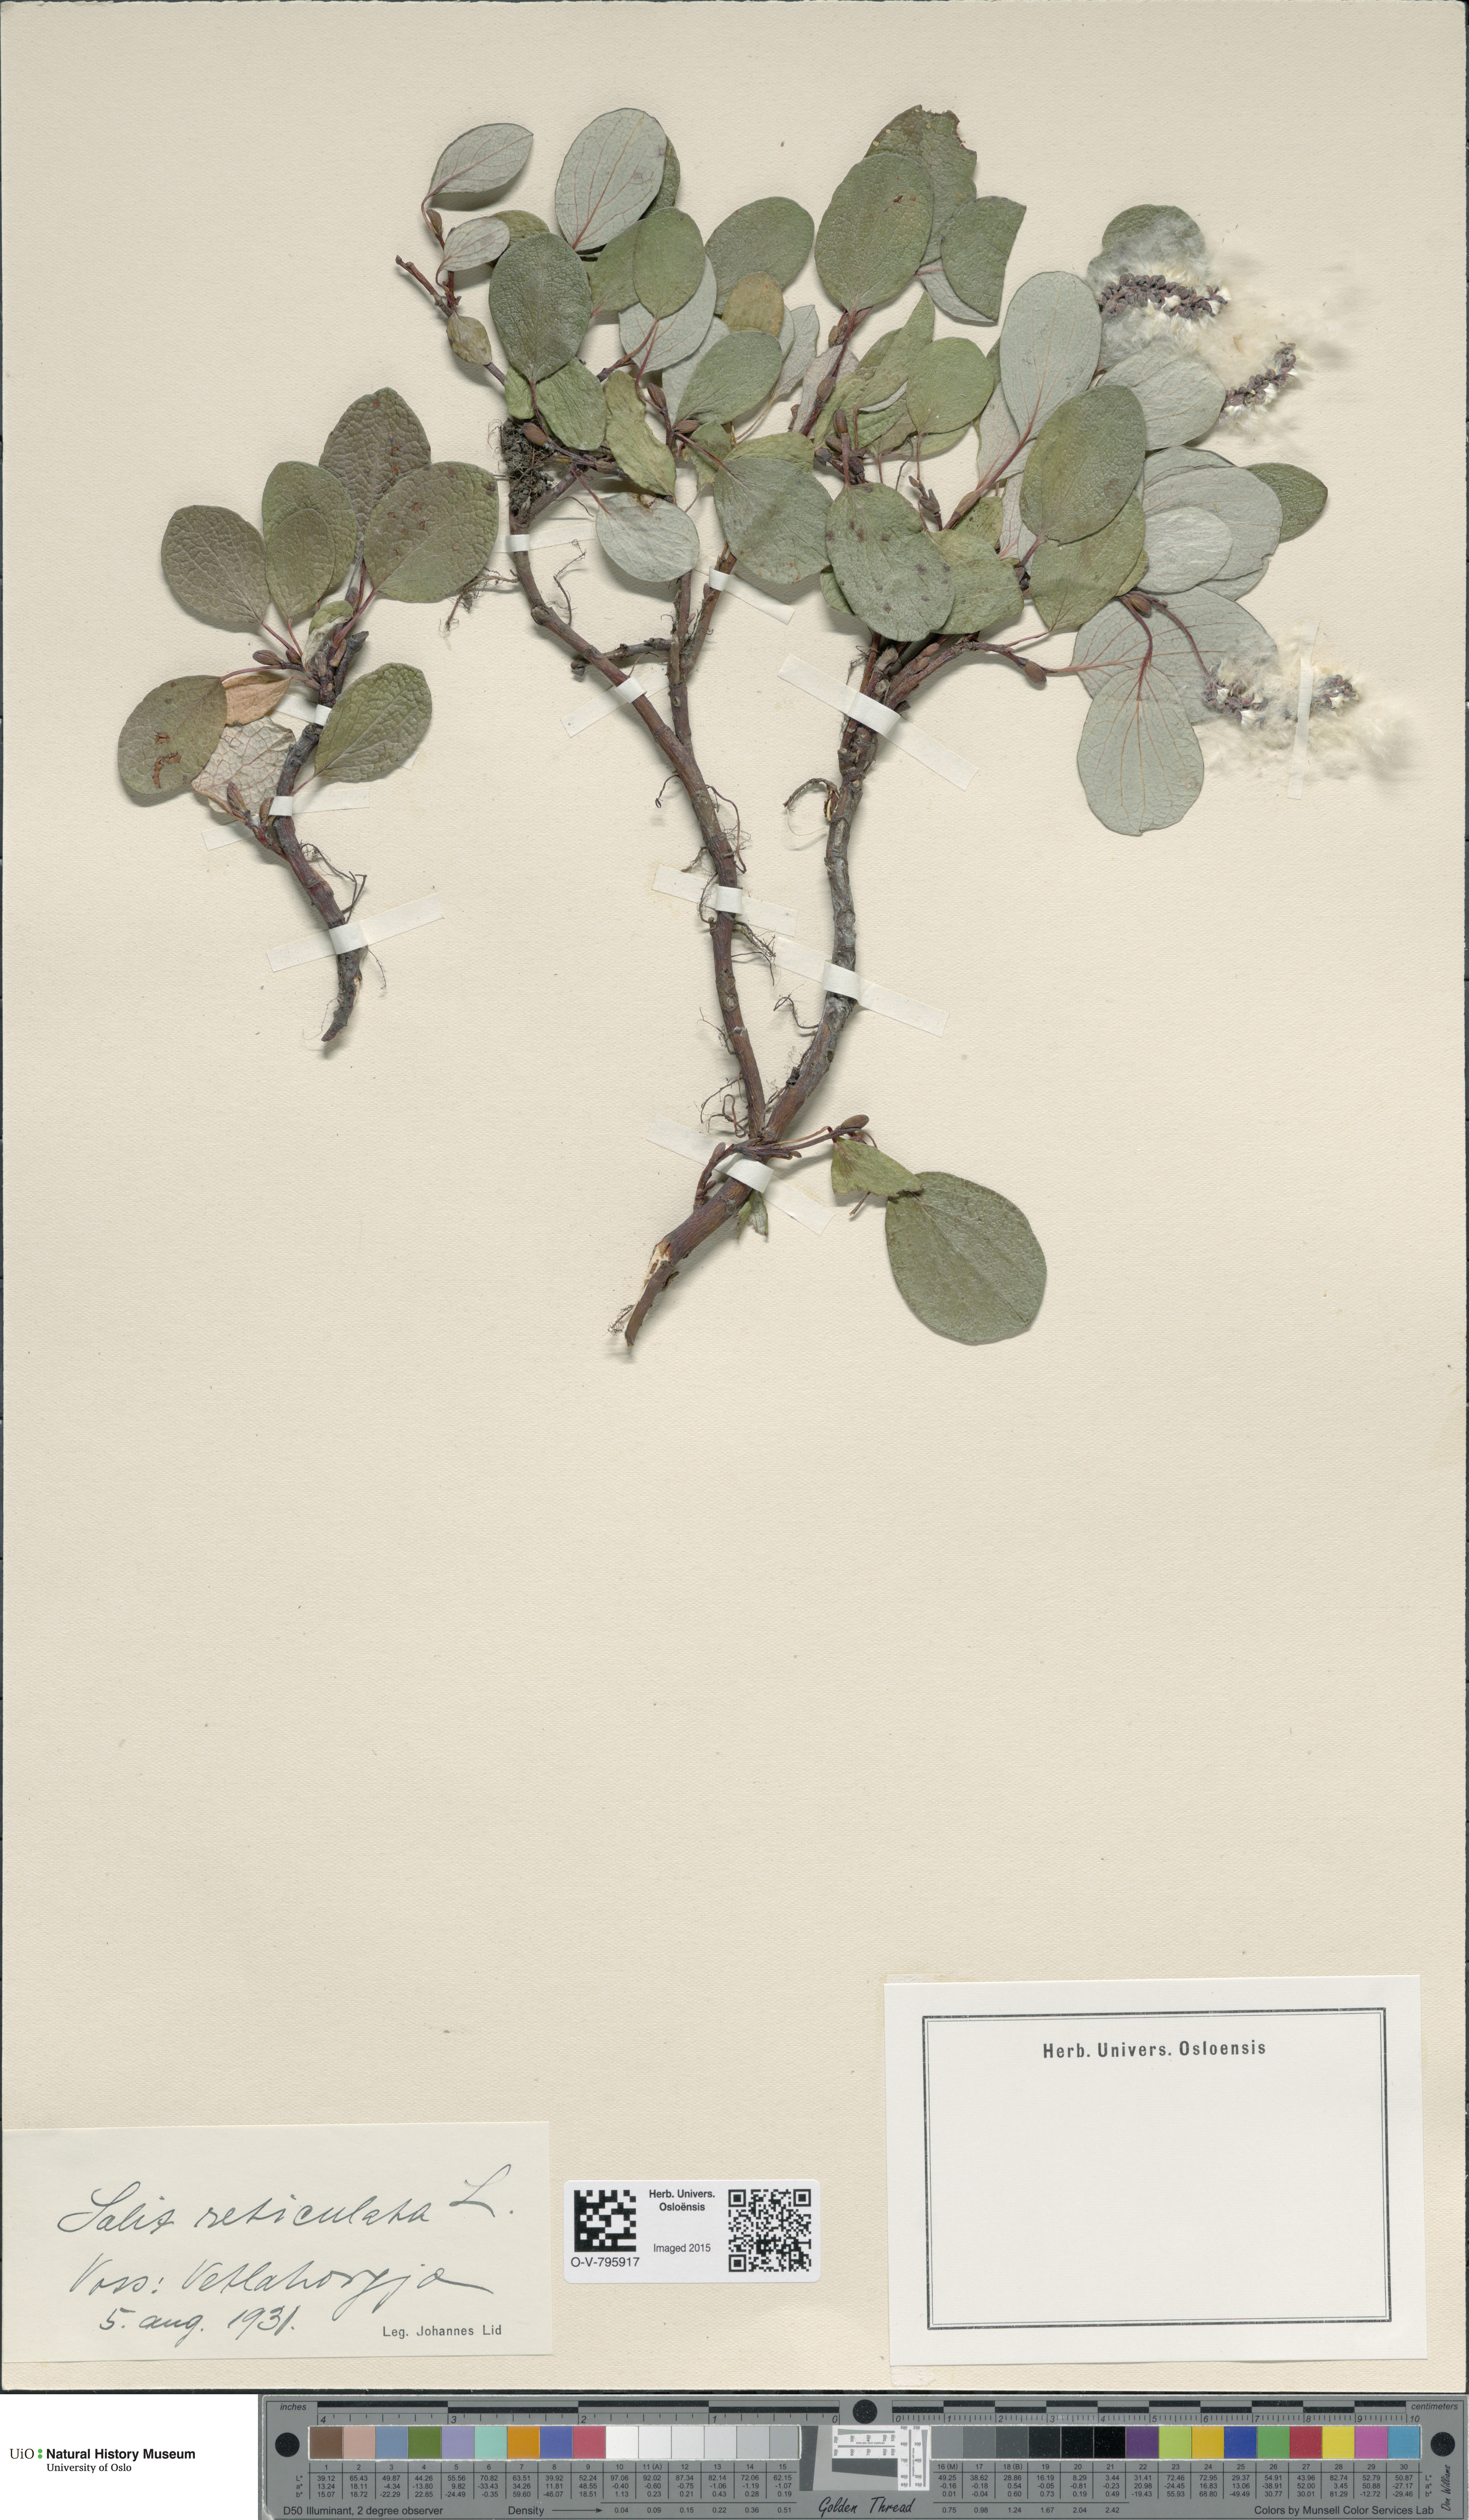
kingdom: Plantae
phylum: Tracheophyta
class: Magnoliopsida
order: Malpighiales
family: Salicaceae
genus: Salix
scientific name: Salix reticulata
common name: Net-leaved willow
